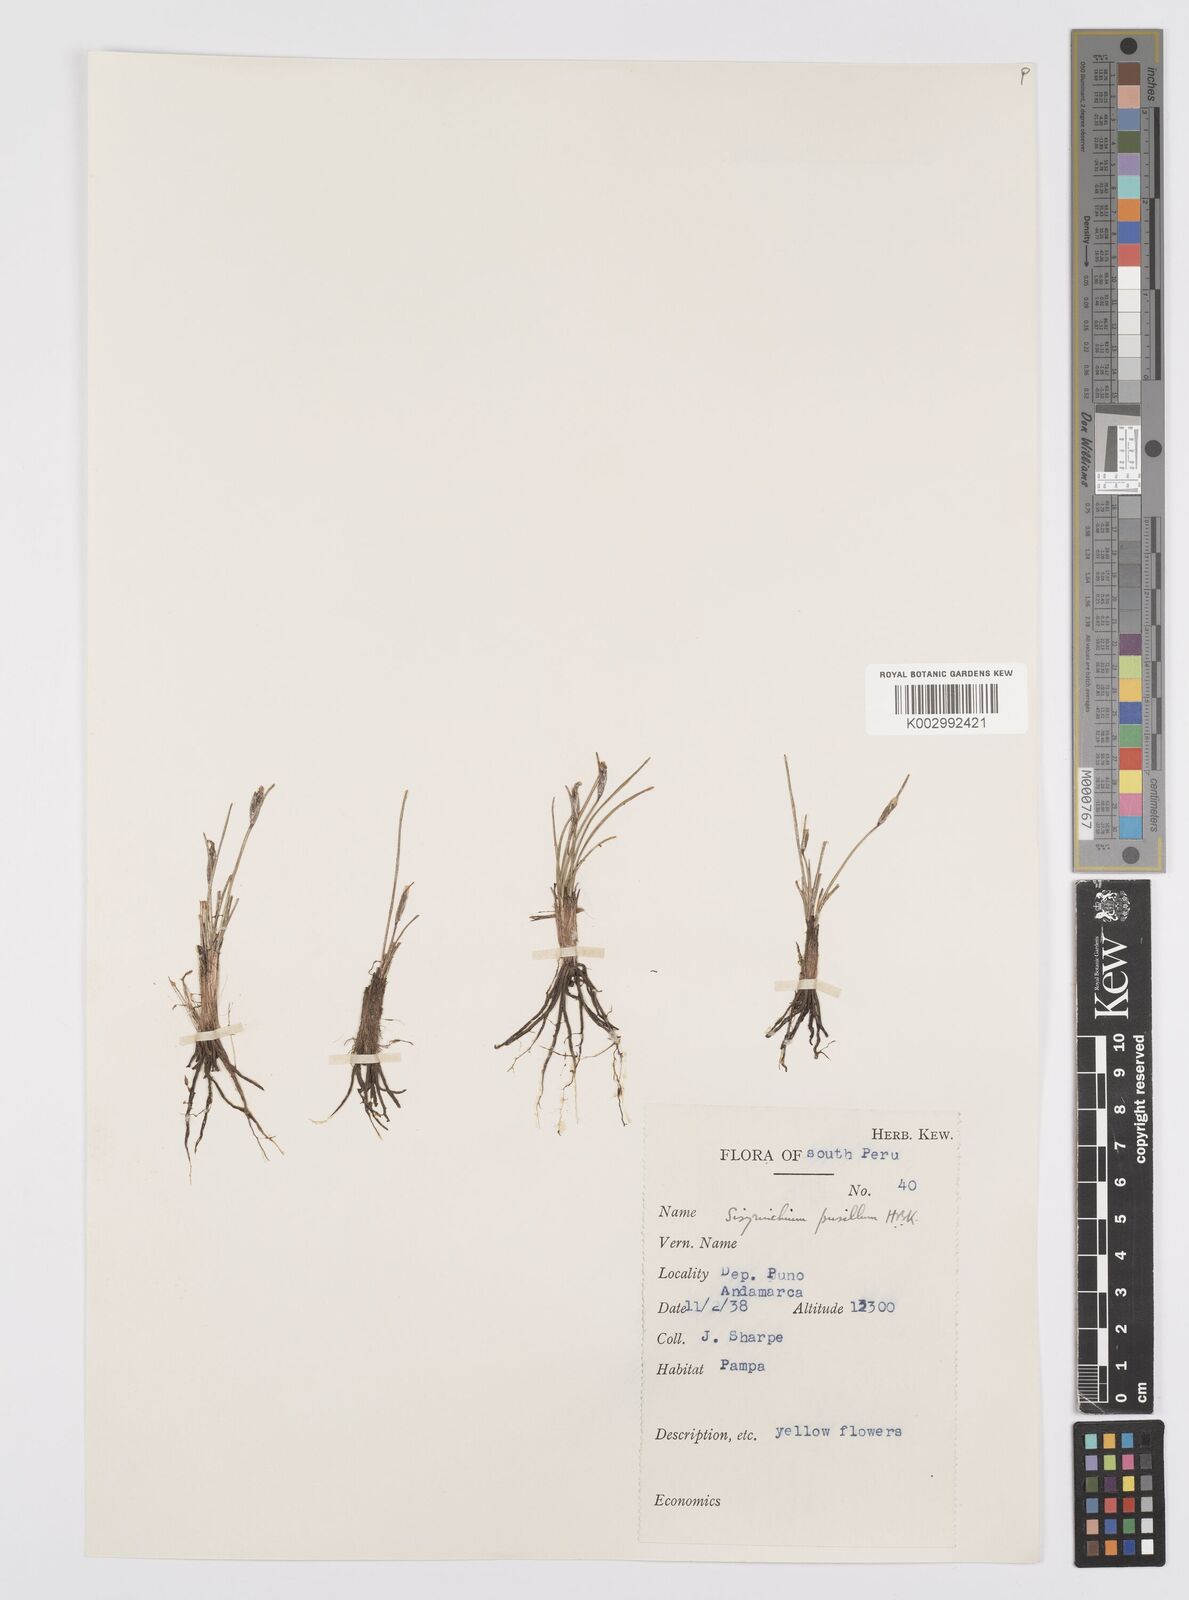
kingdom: Plantae
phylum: Tracheophyta
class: Liliopsida
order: Asparagales
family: Iridaceae
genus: Sisyrinchium
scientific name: Sisyrinchium pusillum
